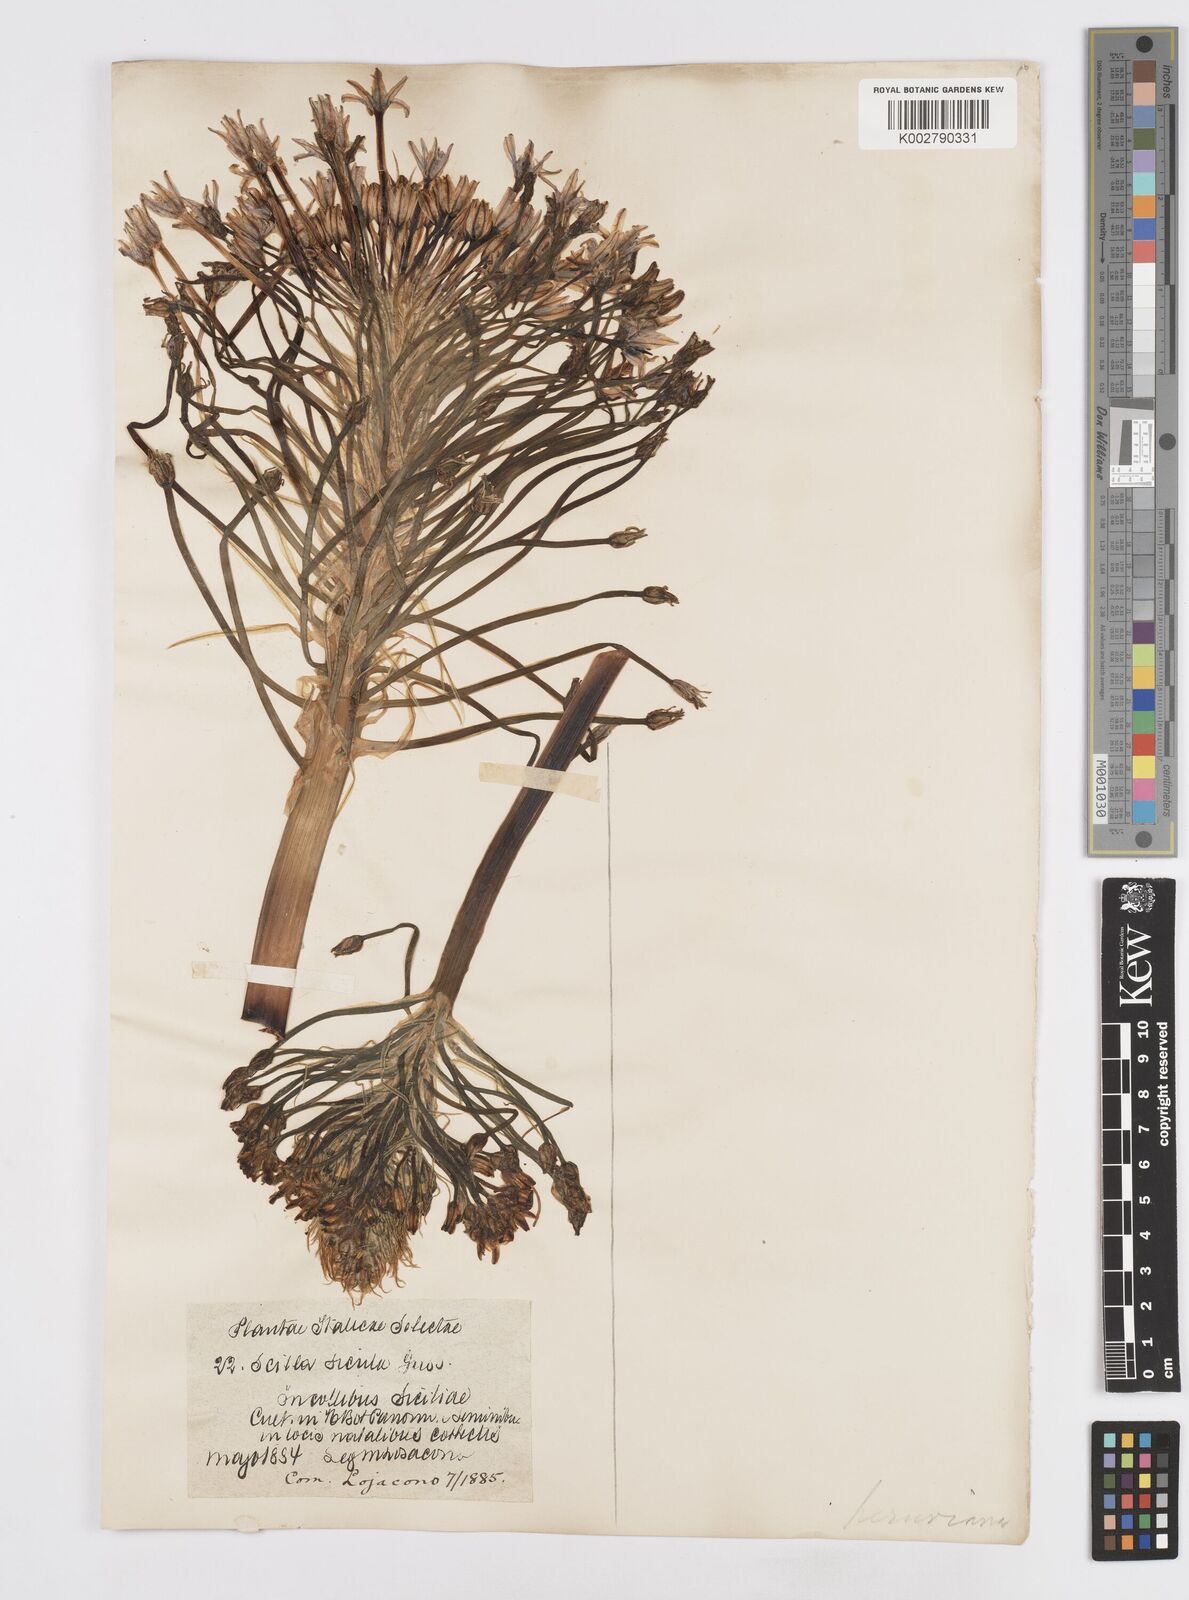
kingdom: Plantae
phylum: Tracheophyta
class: Liliopsida
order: Asparagales
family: Asparagaceae
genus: Scilla
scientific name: Scilla peruviana
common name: Portuguese squill
